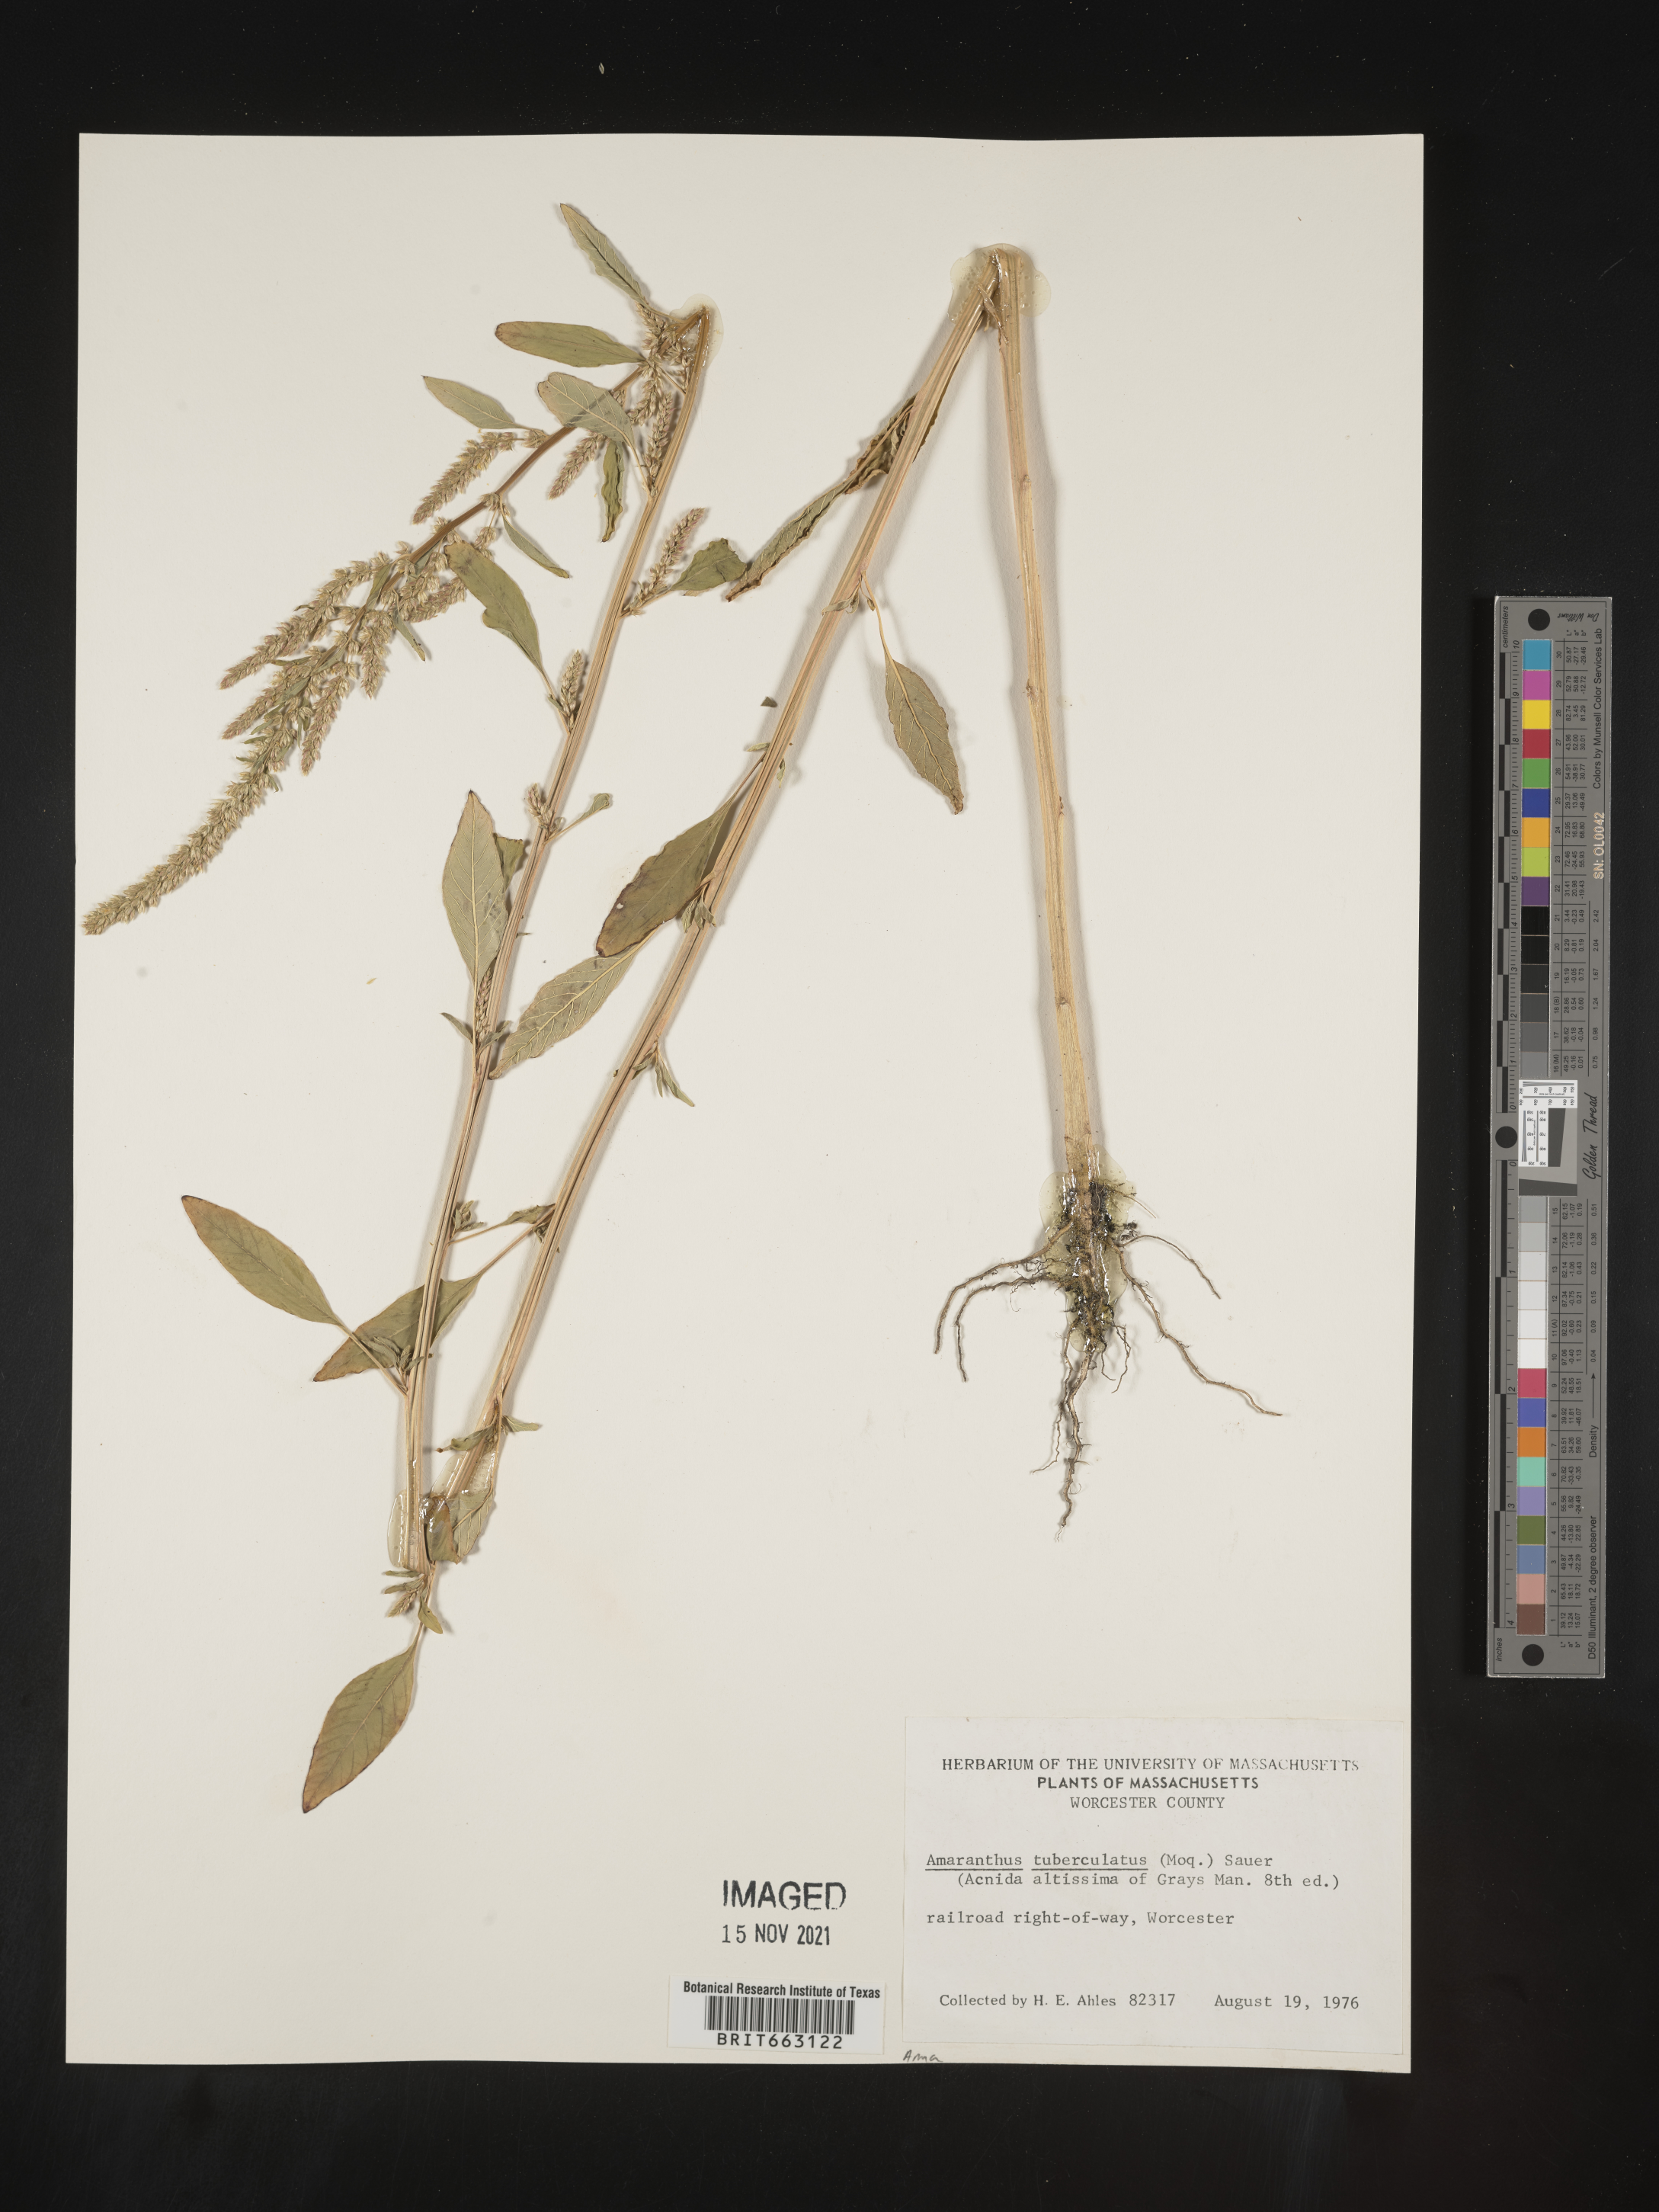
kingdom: Plantae
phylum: Tracheophyta
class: Magnoliopsida
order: Caryophyllales
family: Amaranthaceae
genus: Amaranthus
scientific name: Amaranthus tuberculatus
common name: Rough-fruit amaranth
